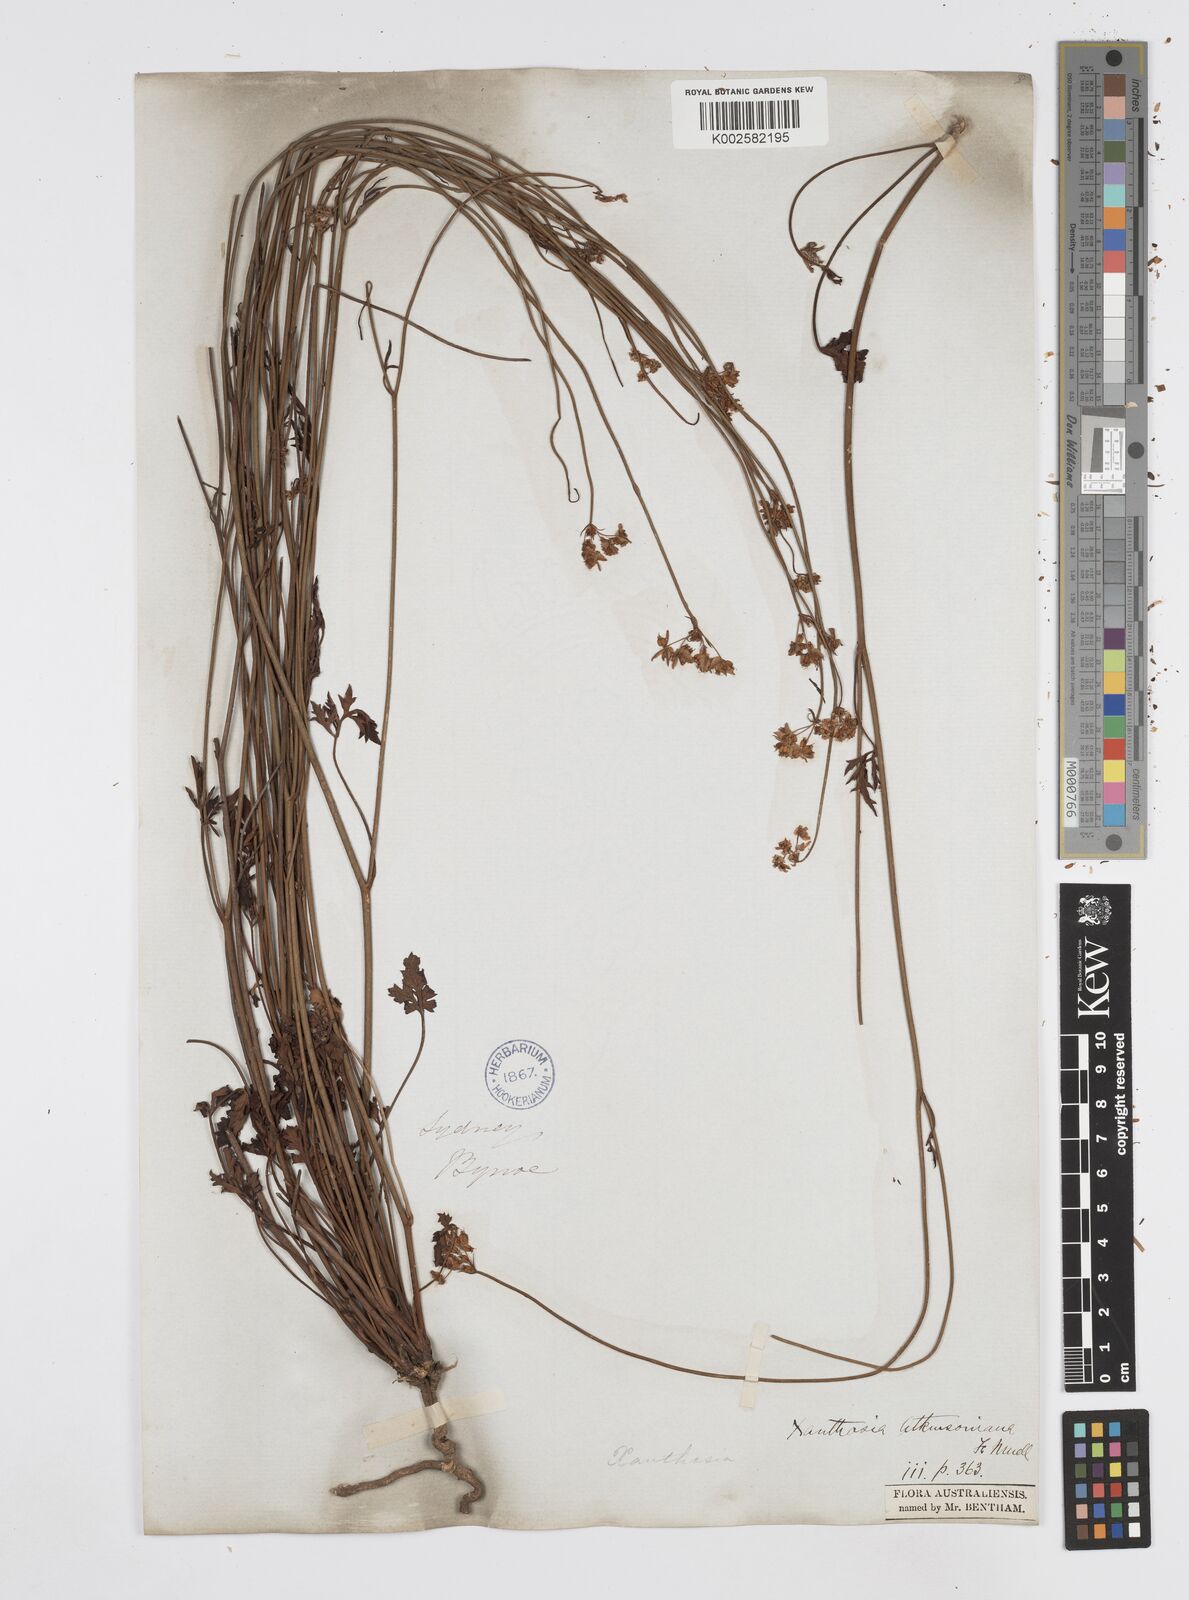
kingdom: Plantae
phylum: Tracheophyta
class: Magnoliopsida
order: Apiales
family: Apiaceae
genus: Xanthosia
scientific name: Xanthosia atkinsoniana
